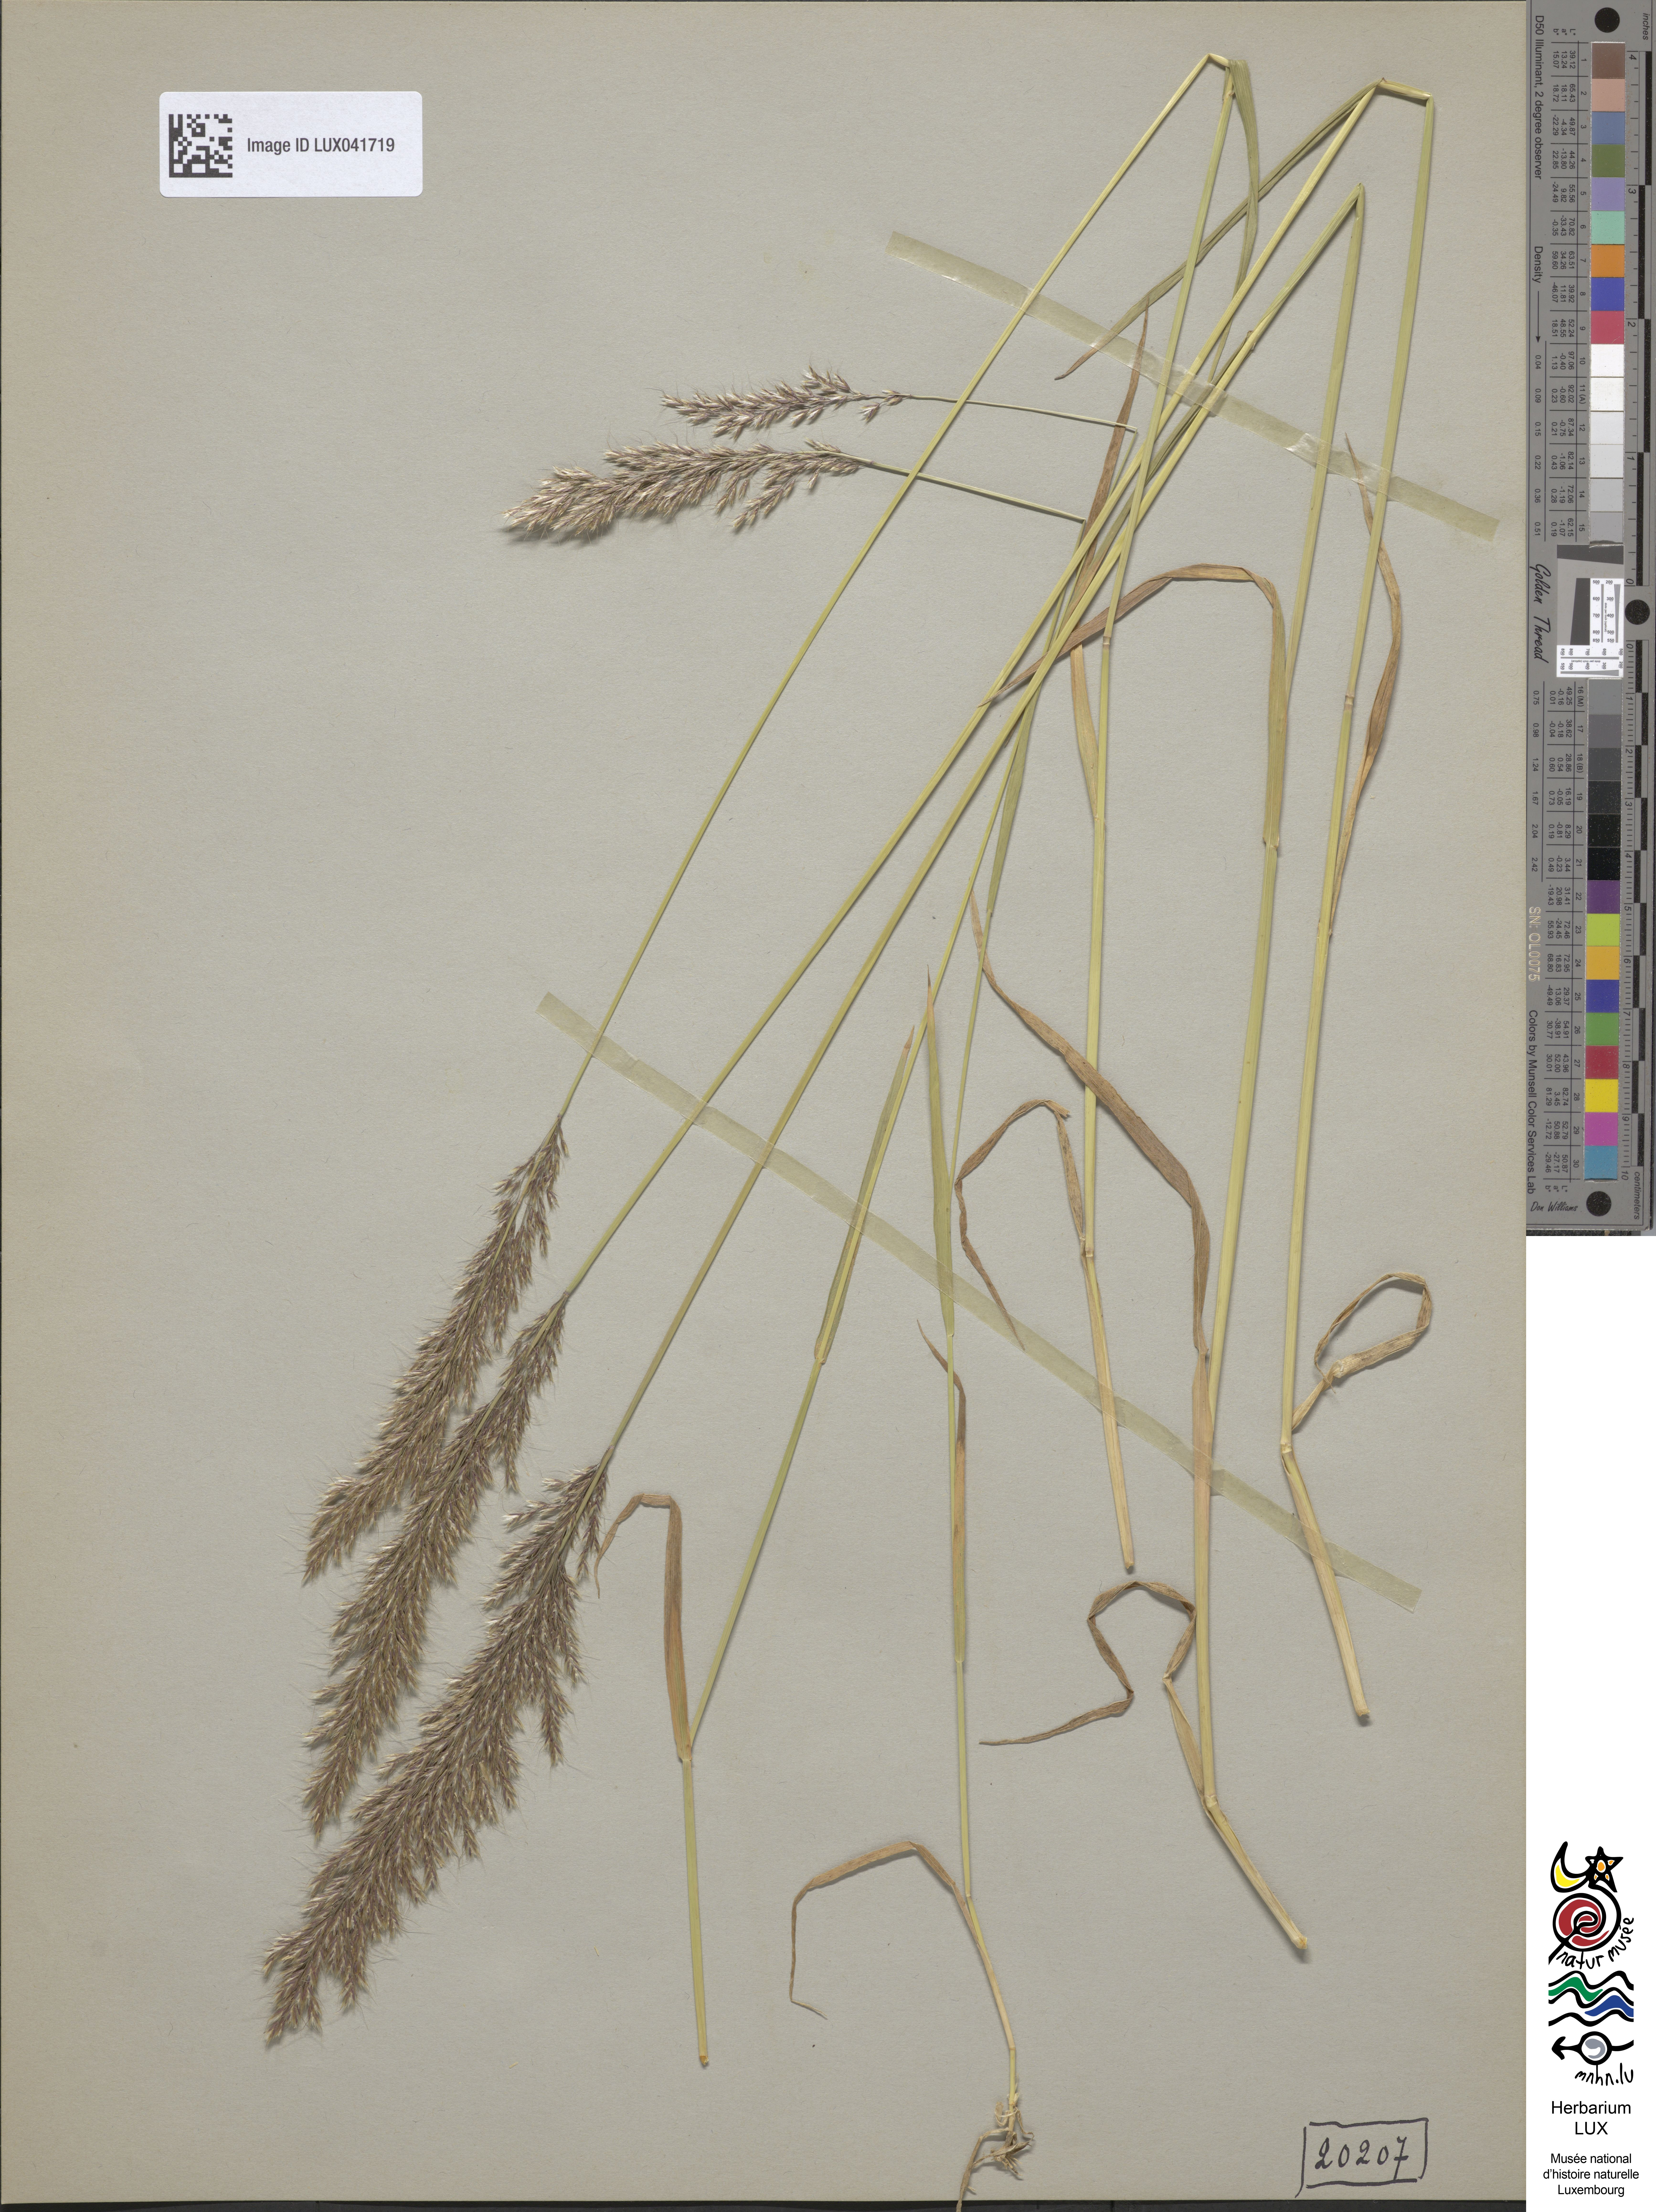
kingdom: Plantae
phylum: Tracheophyta
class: Liliopsida
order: Poales
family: Poaceae
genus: Trisetum
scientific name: Trisetum flavescens
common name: Yellow oat-grass
